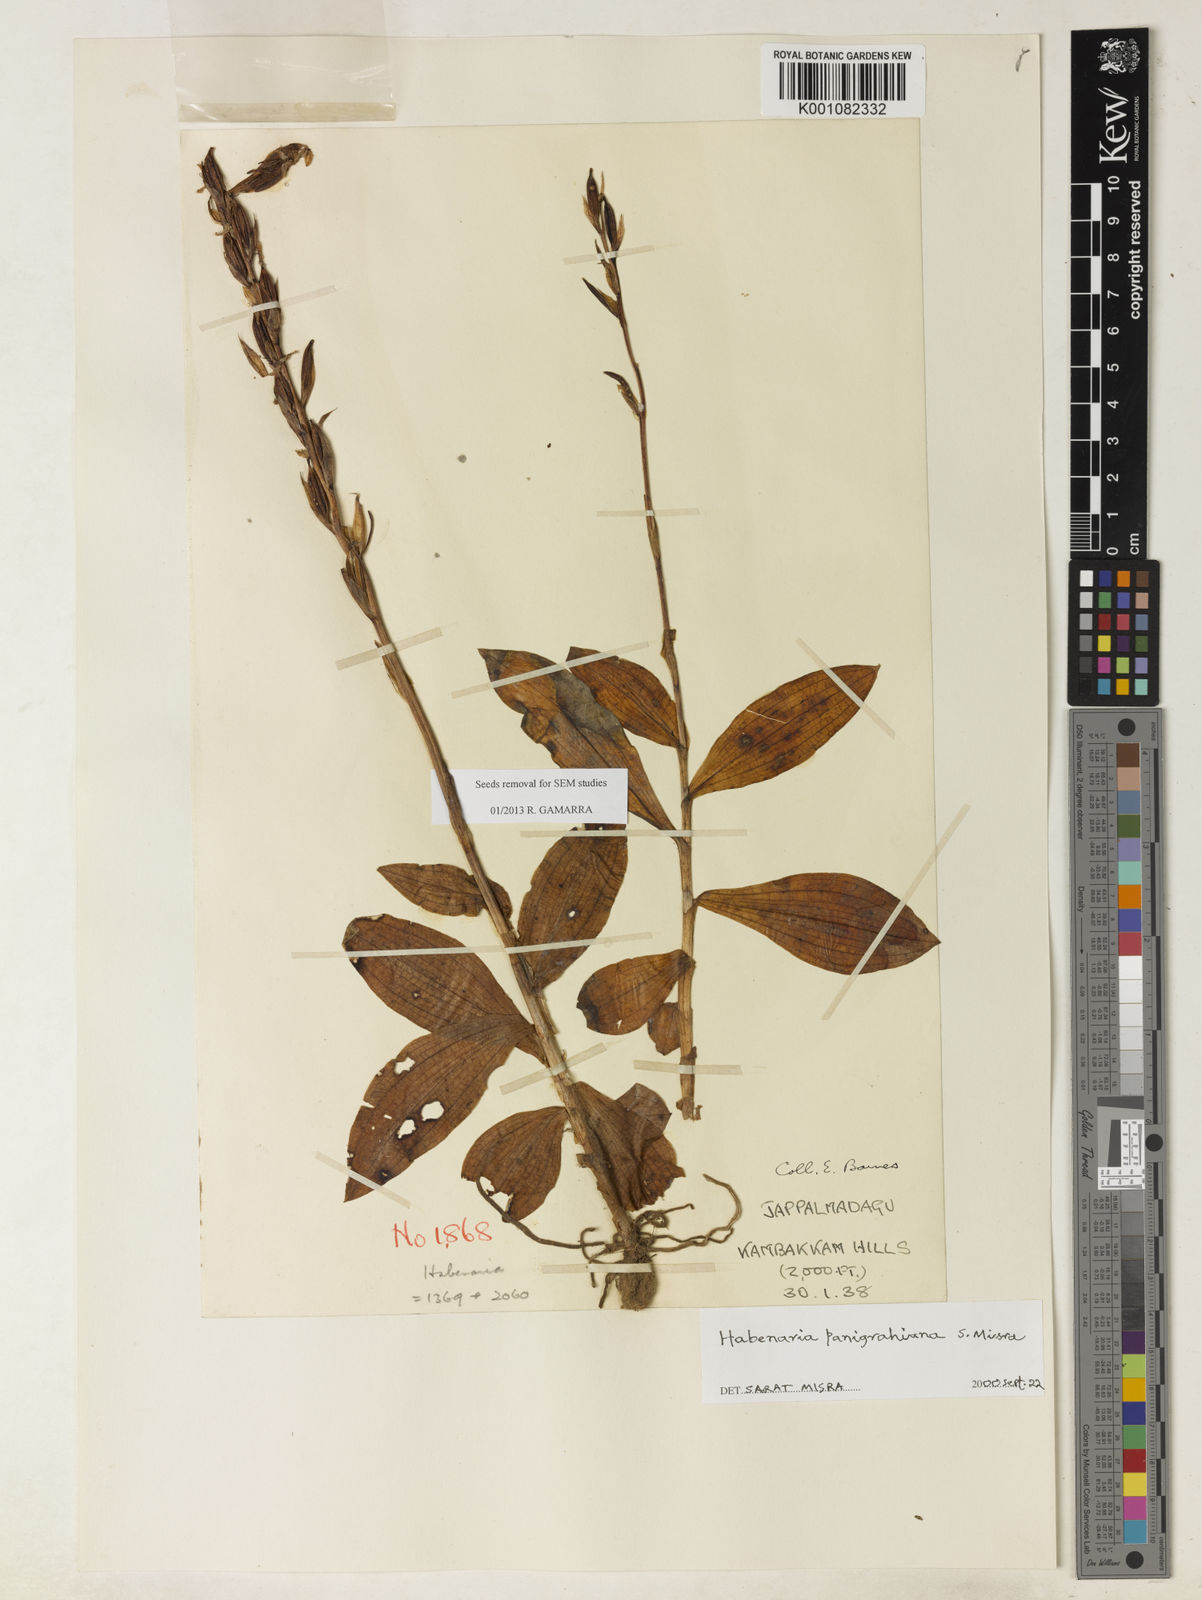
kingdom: Plantae
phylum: Tracheophyta
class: Liliopsida
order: Asparagales
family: Orchidaceae
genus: Habenaria
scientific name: Habenaria panigrahiana
